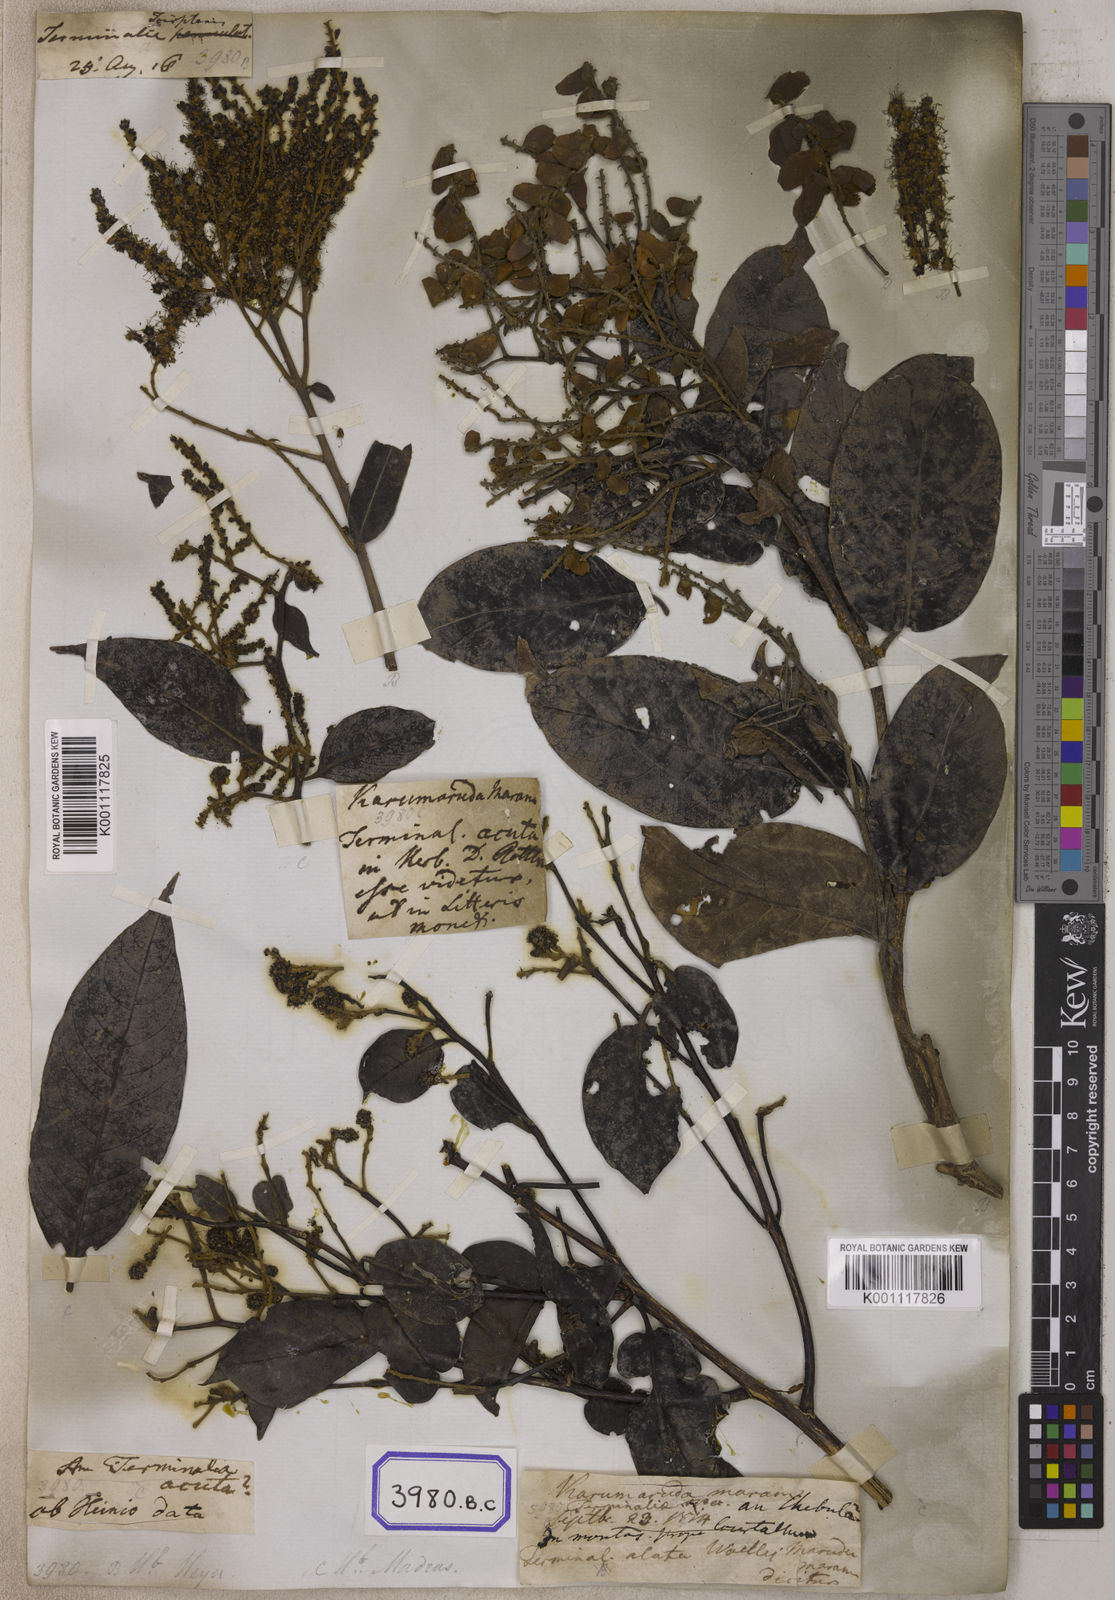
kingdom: Plantae
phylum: Tracheophyta
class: Magnoliopsida
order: Myrtales
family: Combretaceae
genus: Terminalia
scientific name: Terminalia
